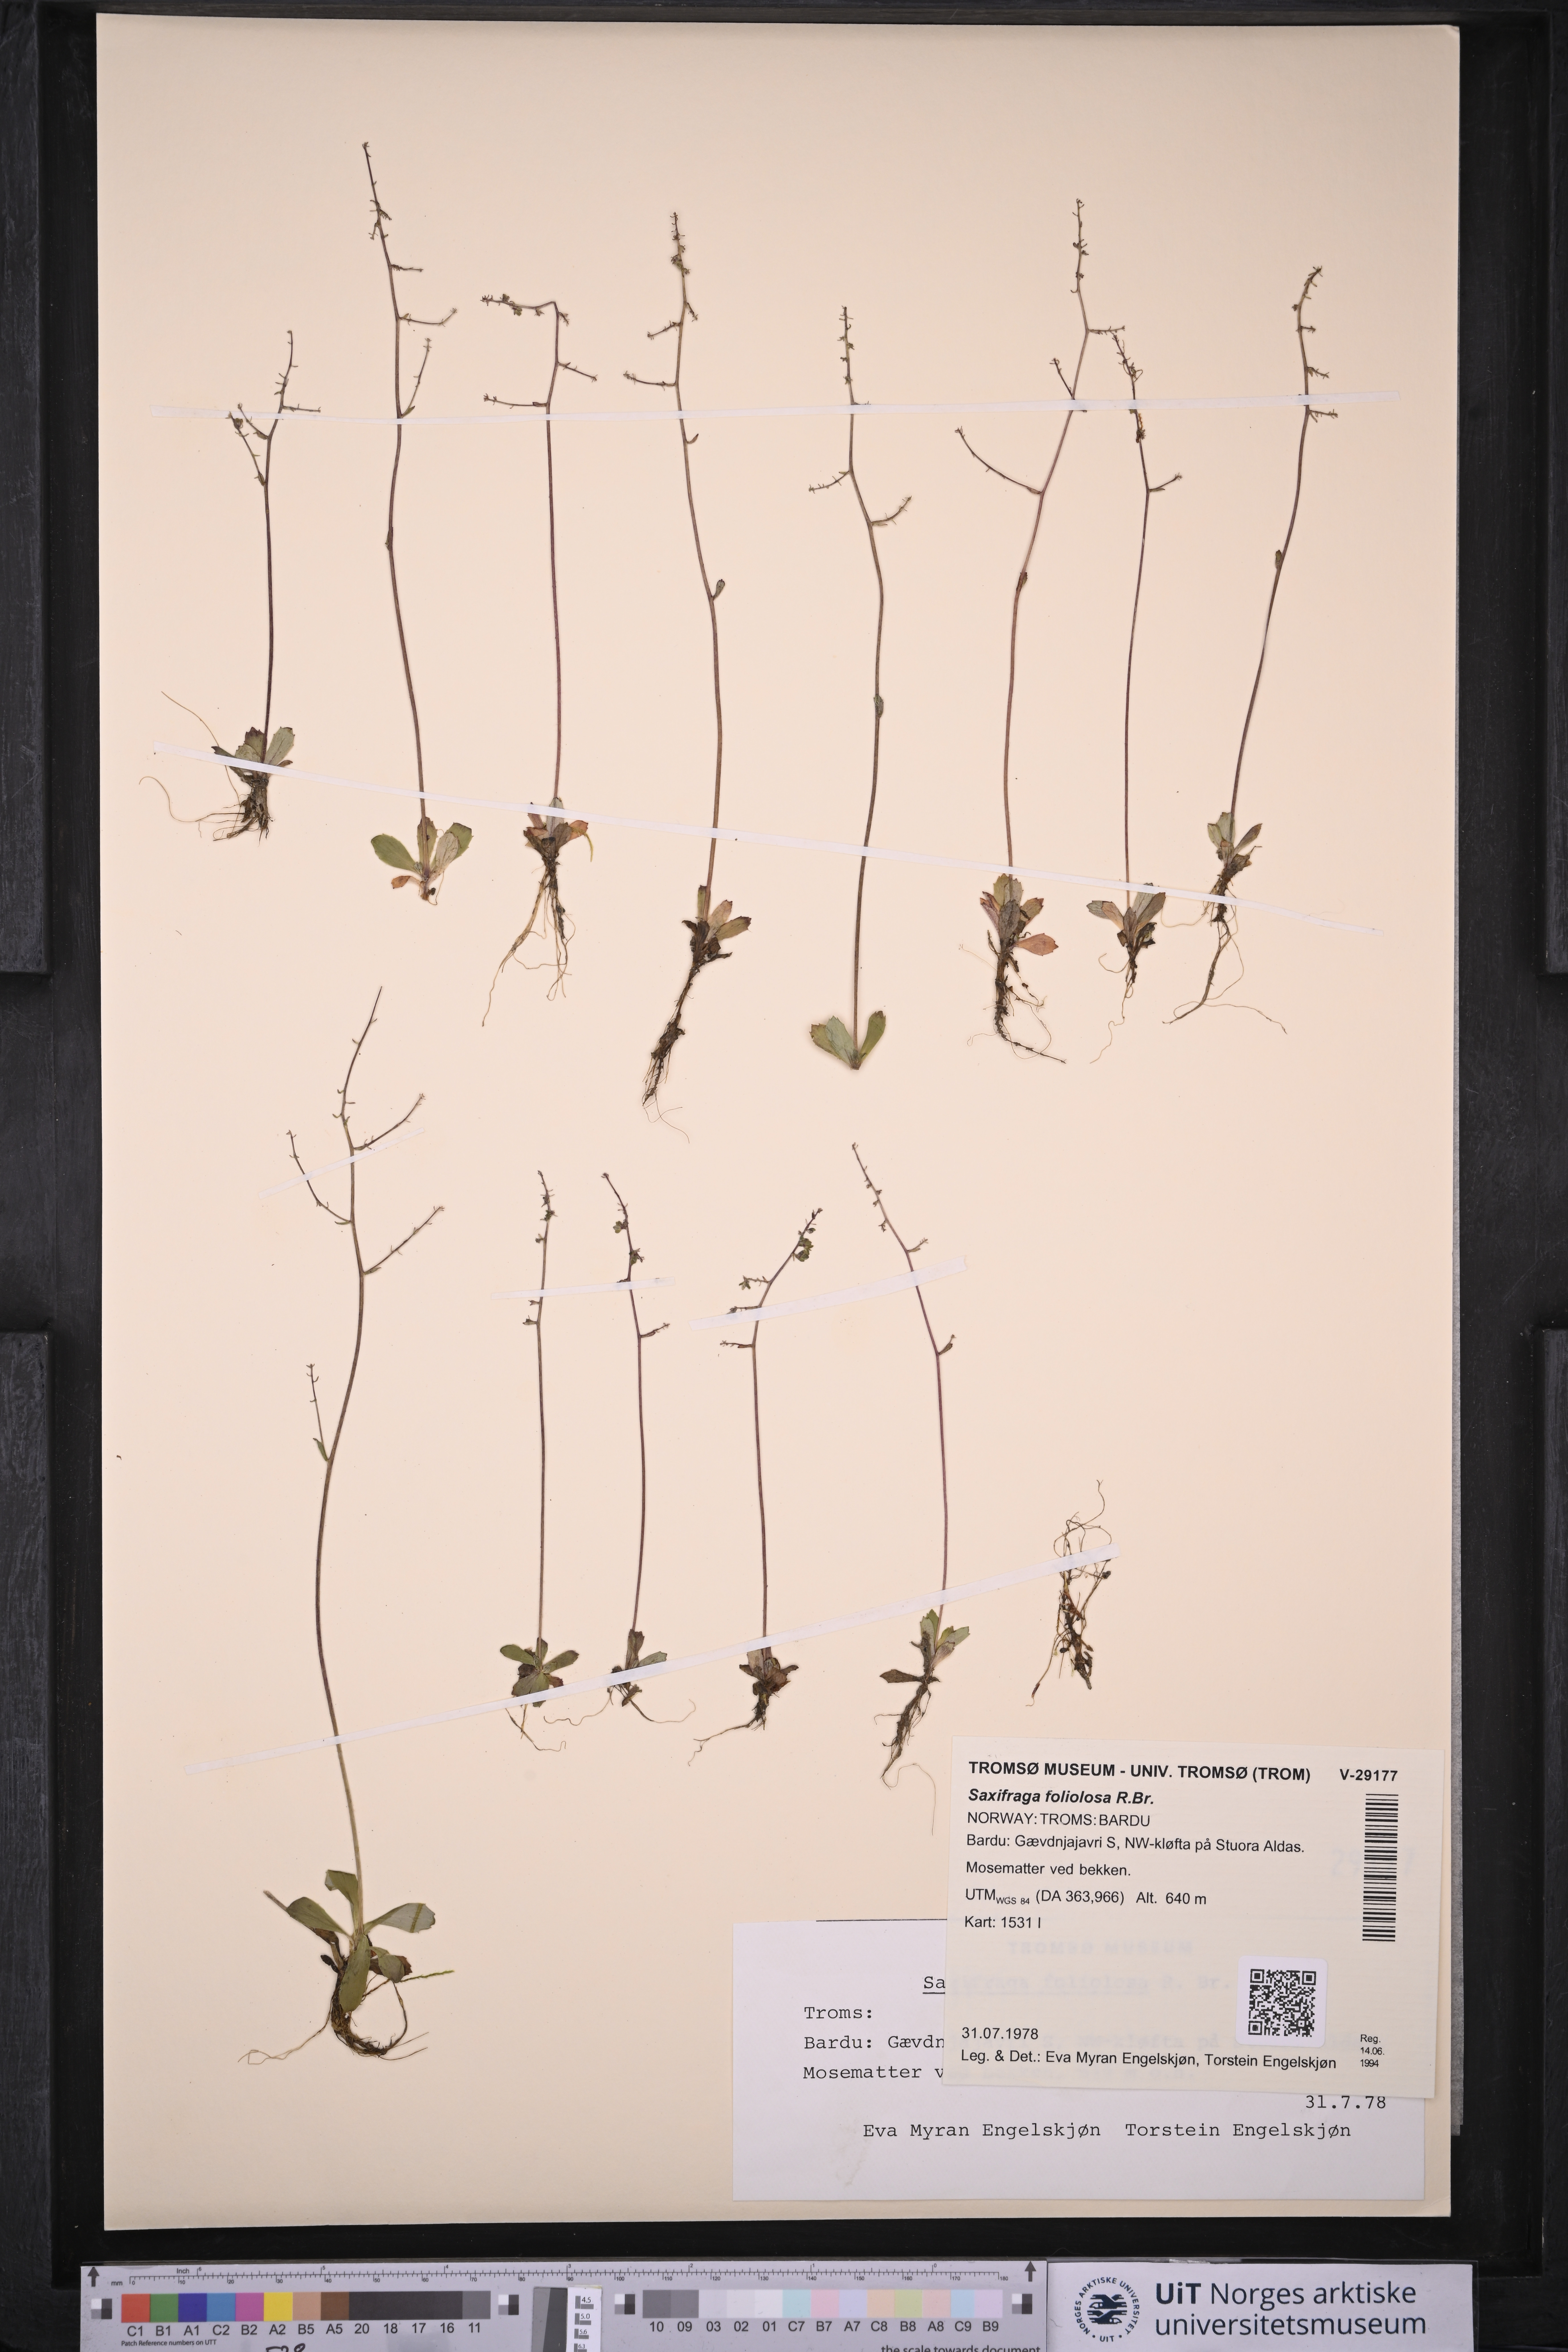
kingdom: Plantae
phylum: Tracheophyta
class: Magnoliopsida
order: Saxifragales
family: Saxifragaceae
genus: Micranthes
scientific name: Micranthes foliolosa
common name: Leafystem saxifrage
